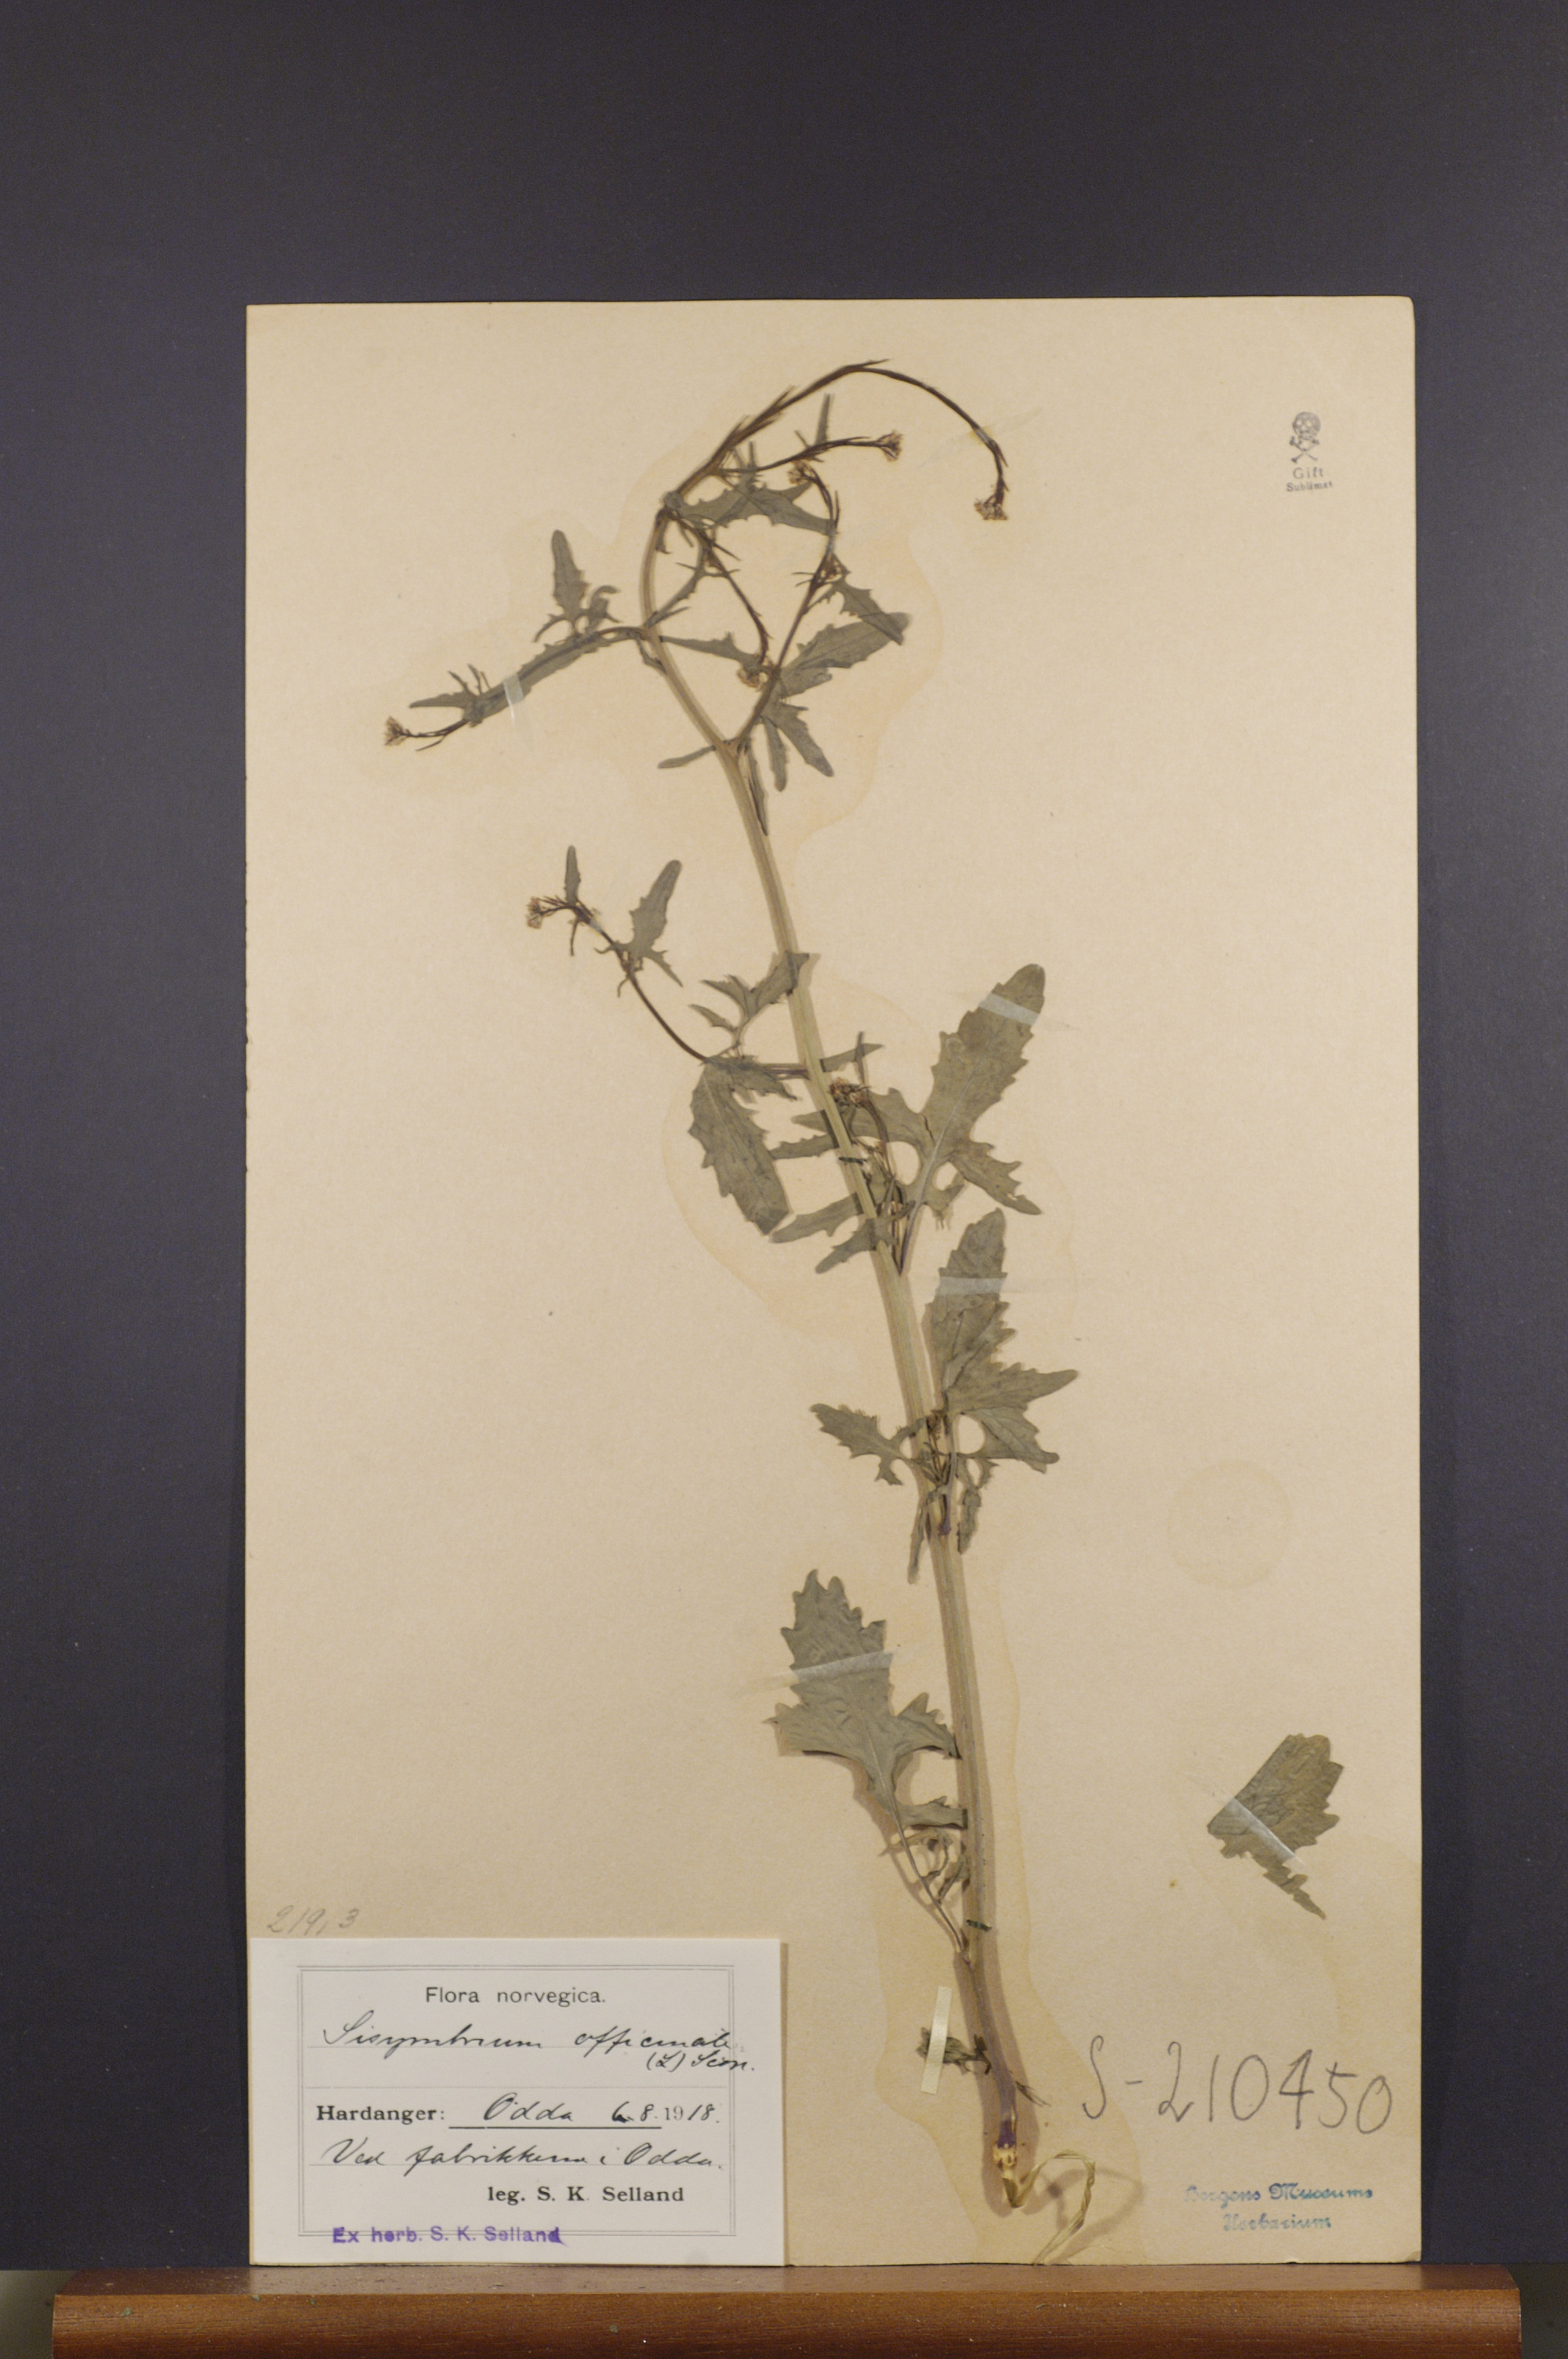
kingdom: Plantae
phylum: Tracheophyta
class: Magnoliopsida
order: Brassicales
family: Brassicaceae
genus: Sisymbrium
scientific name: Sisymbrium officinale
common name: Hedge mustard
